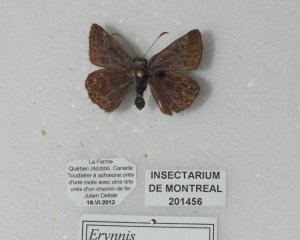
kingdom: Animalia
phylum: Arthropoda
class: Insecta
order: Lepidoptera
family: Hesperiidae
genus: Erynnis
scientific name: Erynnis icelus
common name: Dreamy Duskywing
